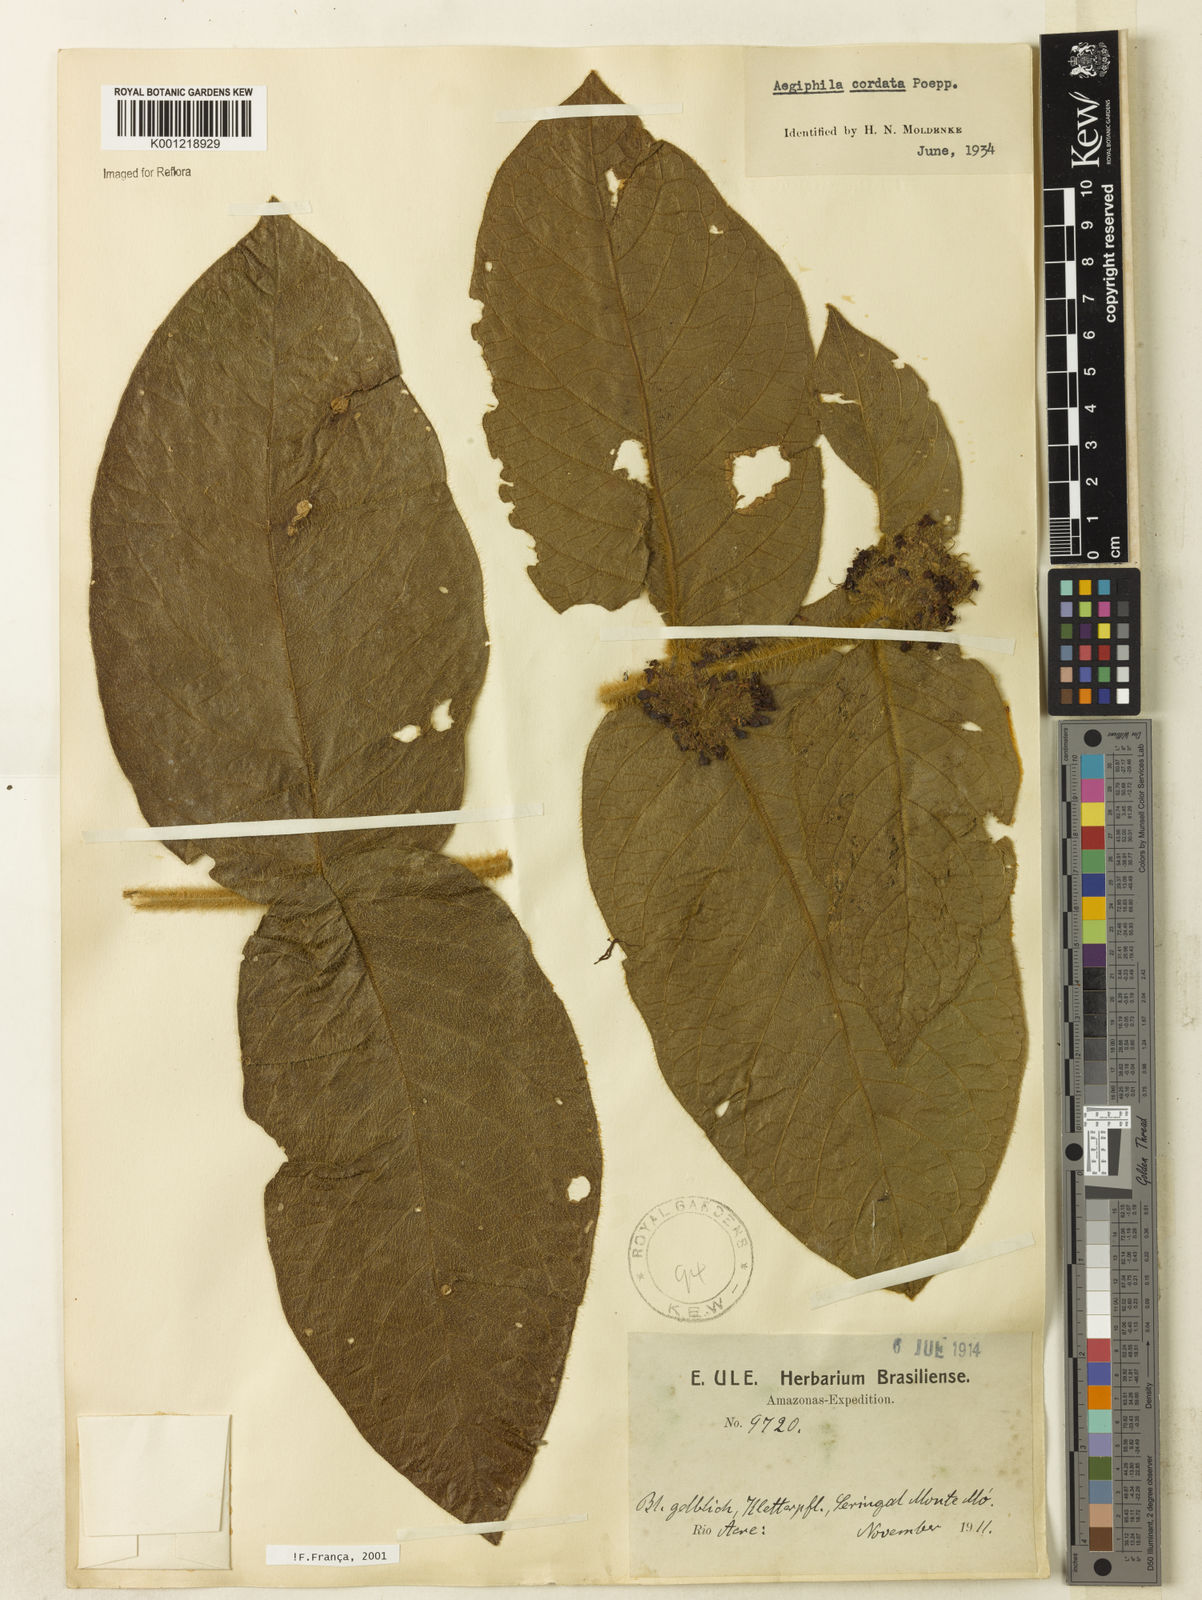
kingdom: Plantae
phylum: Tracheophyta
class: Magnoliopsida
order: Lamiales
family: Lamiaceae
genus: Aegiphila
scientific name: Aegiphila
